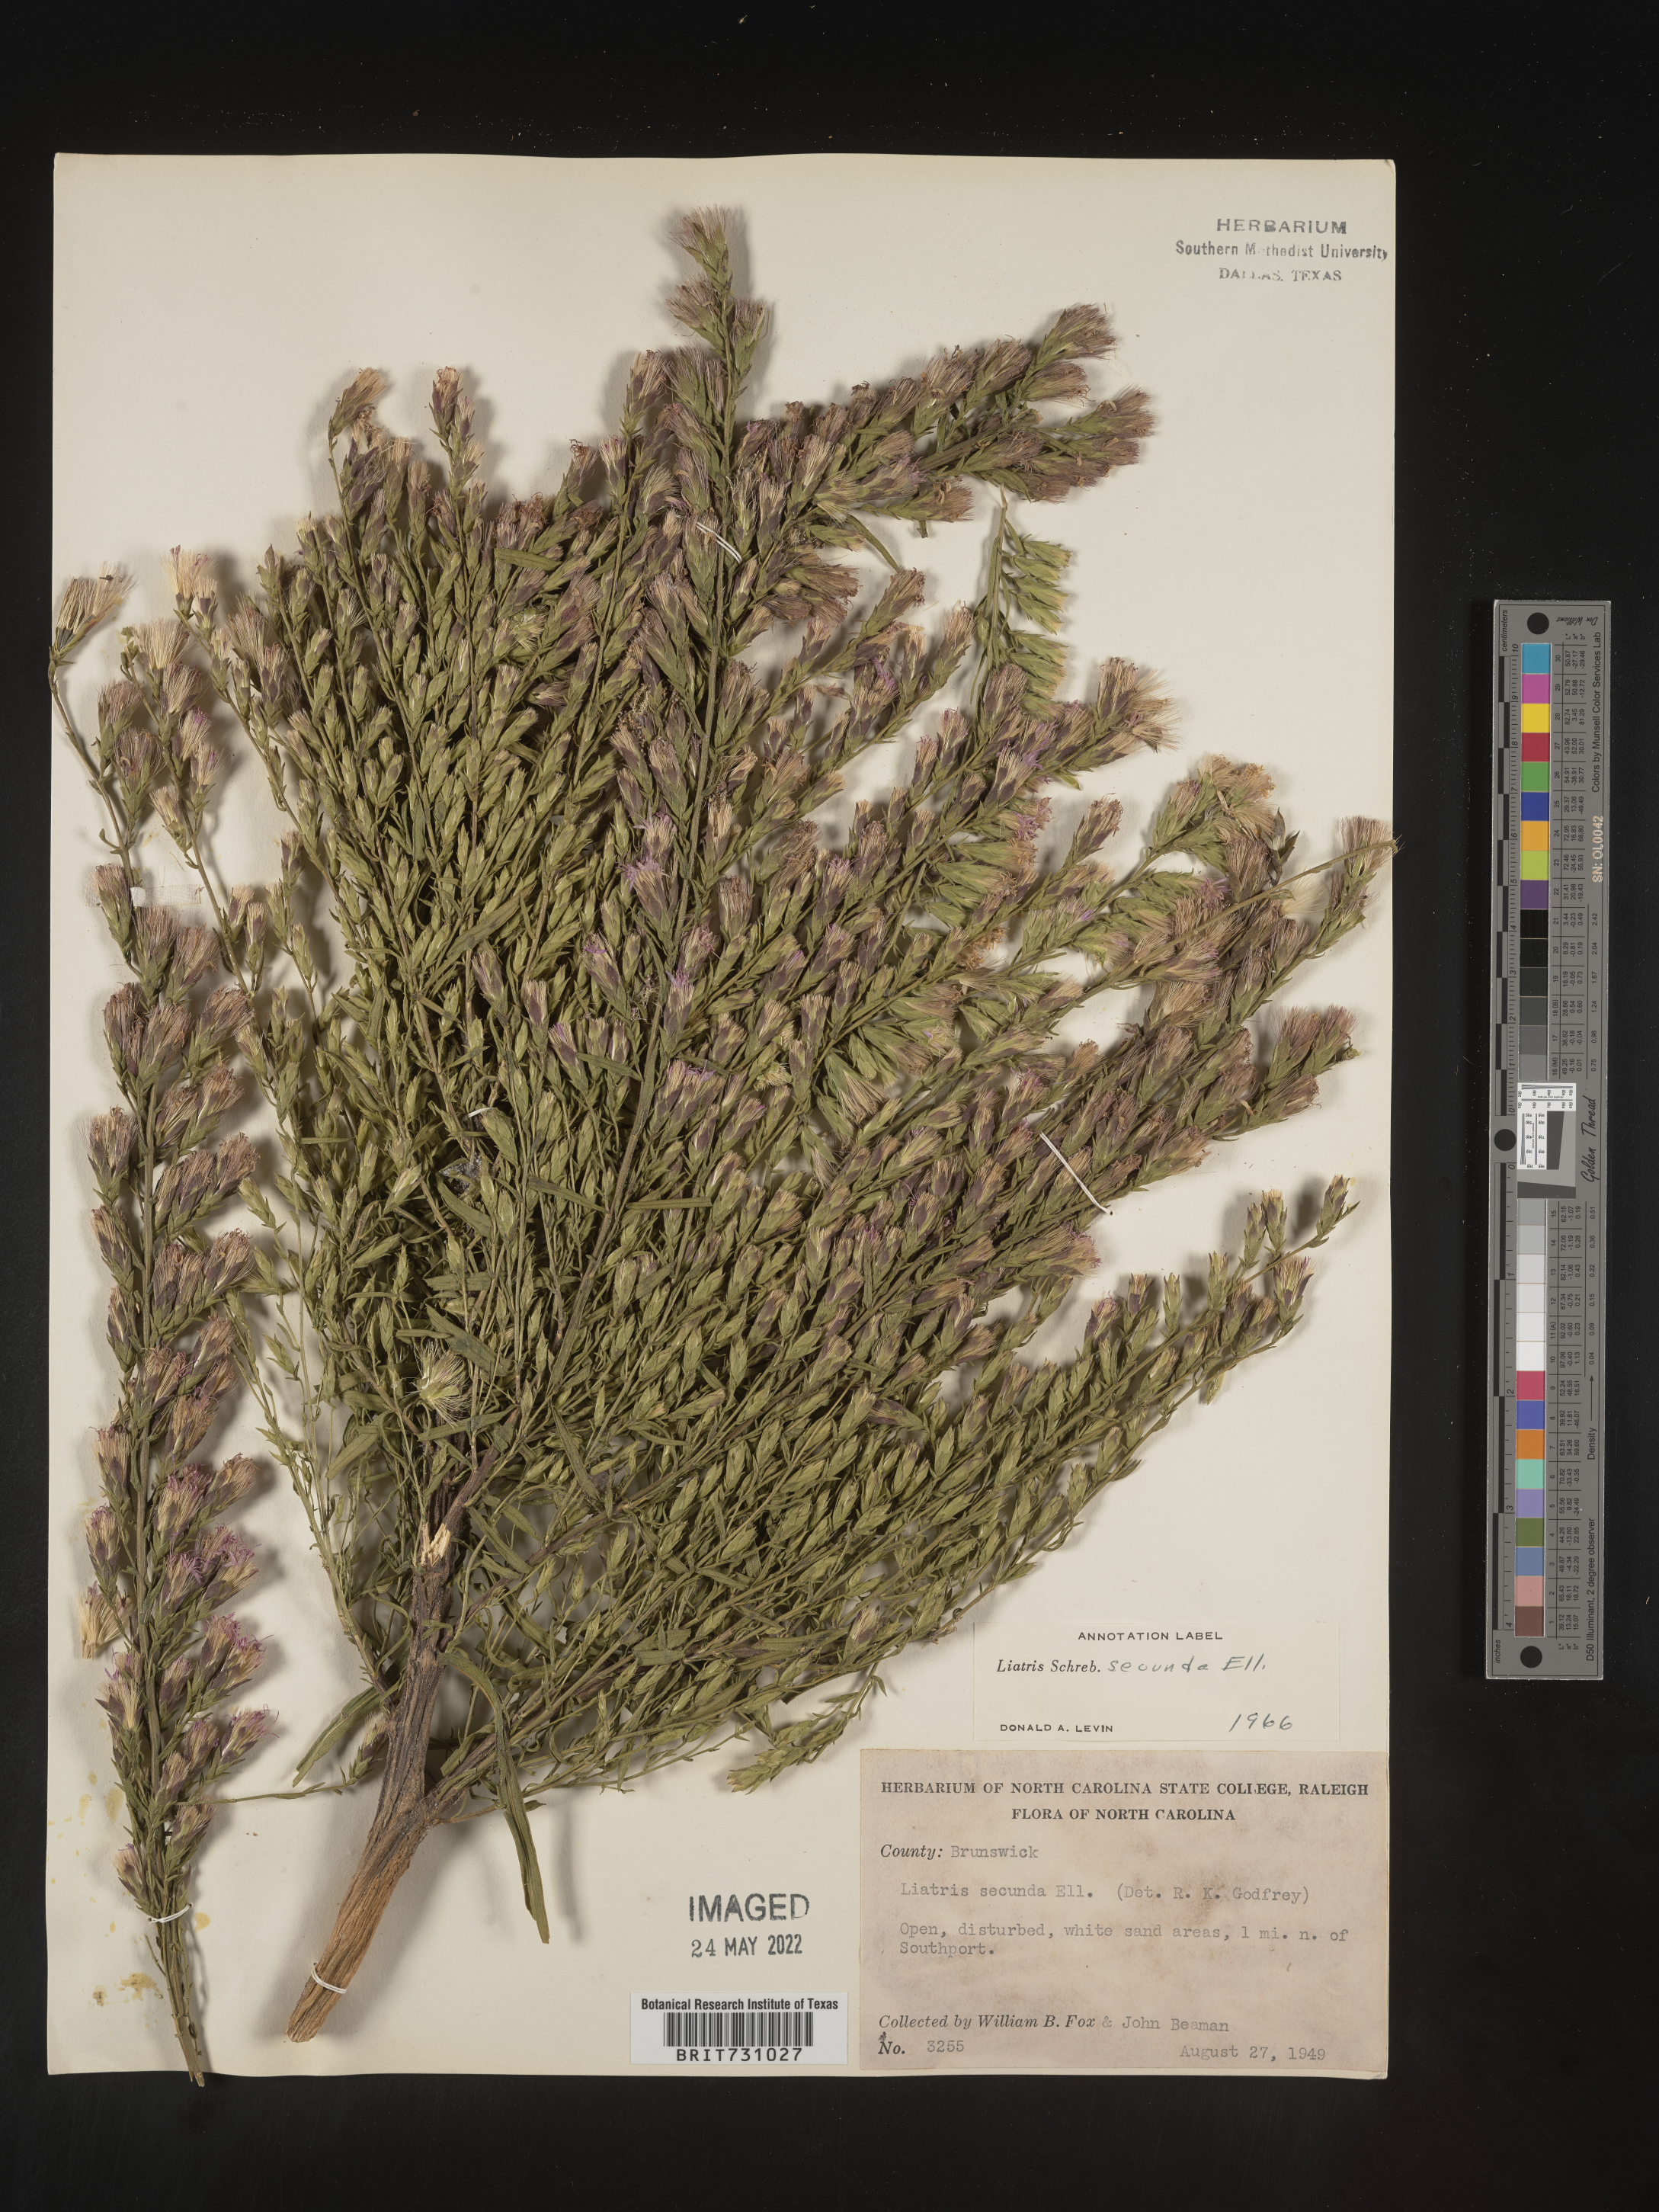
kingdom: Plantae
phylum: Tracheophyta
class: Magnoliopsida
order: Asterales
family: Asteraceae
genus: Liatris
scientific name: Liatris pauciflora
